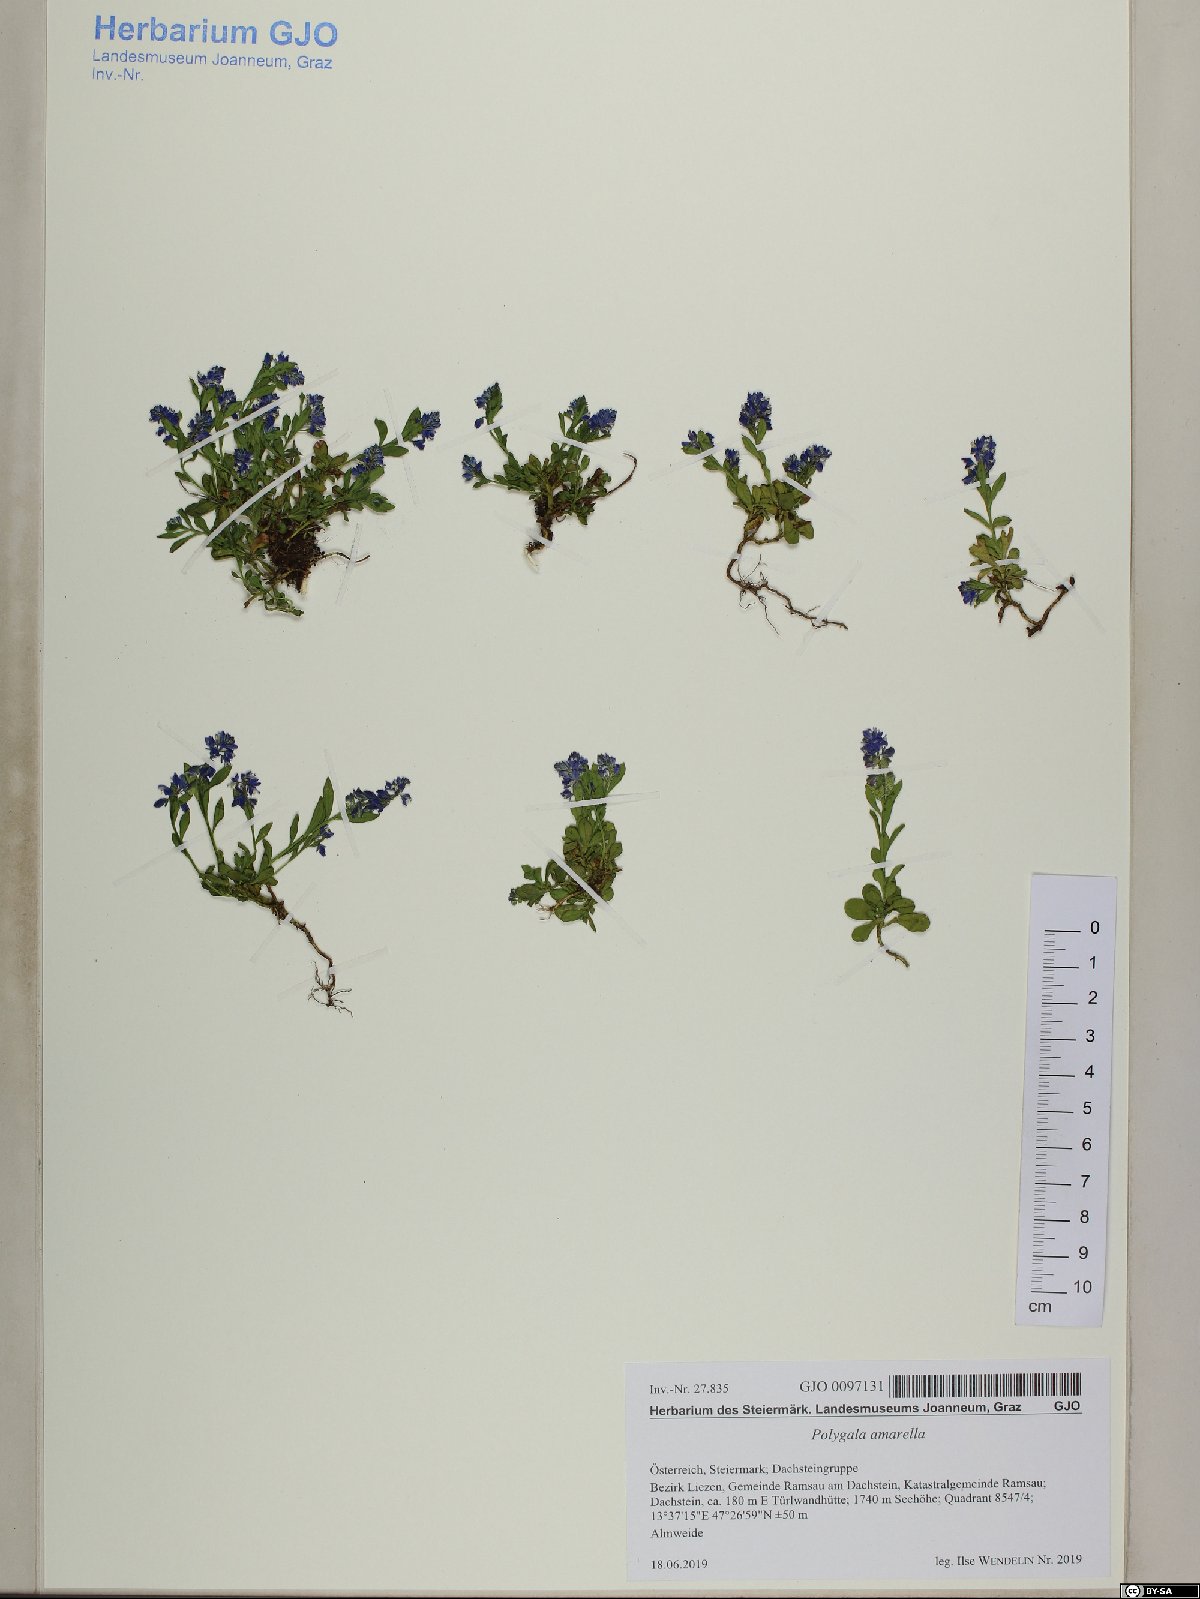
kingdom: Plantae
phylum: Tracheophyta
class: Magnoliopsida
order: Fabales
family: Polygalaceae
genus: Polygala
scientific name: Polygala amarella
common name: Dwarf milkwort
